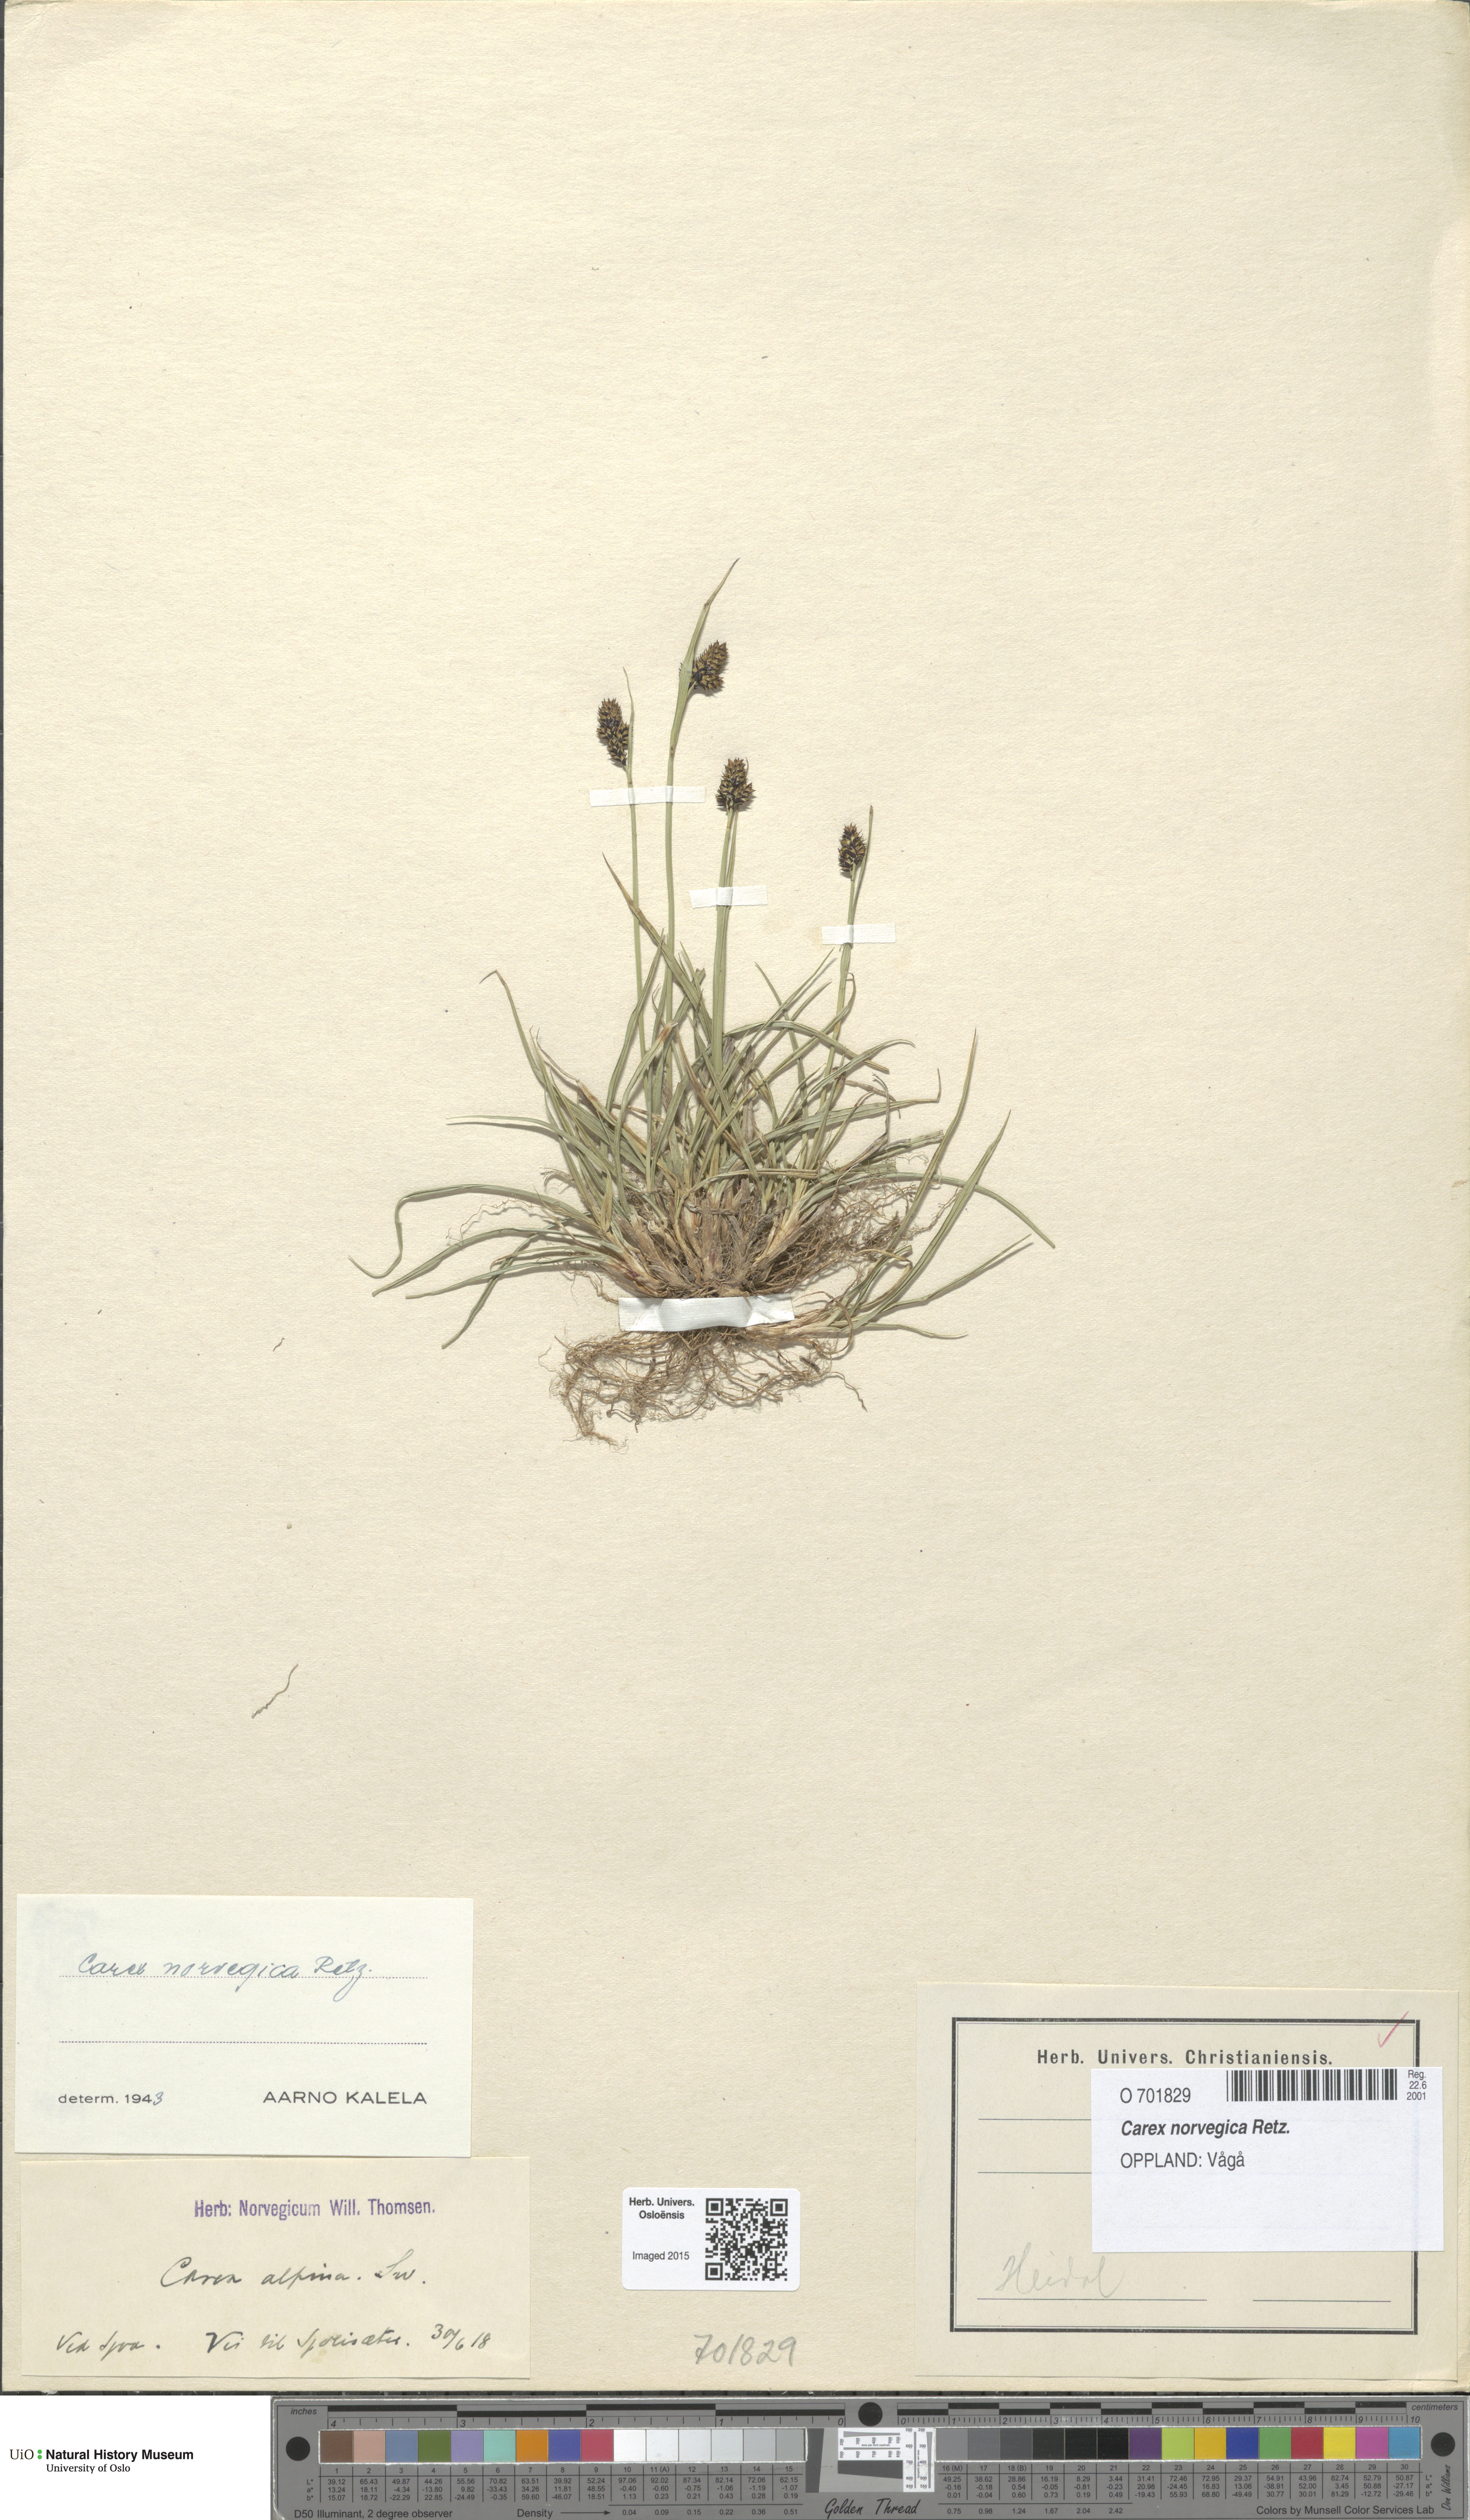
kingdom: Plantae
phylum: Tracheophyta
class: Liliopsida
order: Poales
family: Cyperaceae
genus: Carex
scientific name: Carex norvegica
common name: Close-headed alpine-sedge
